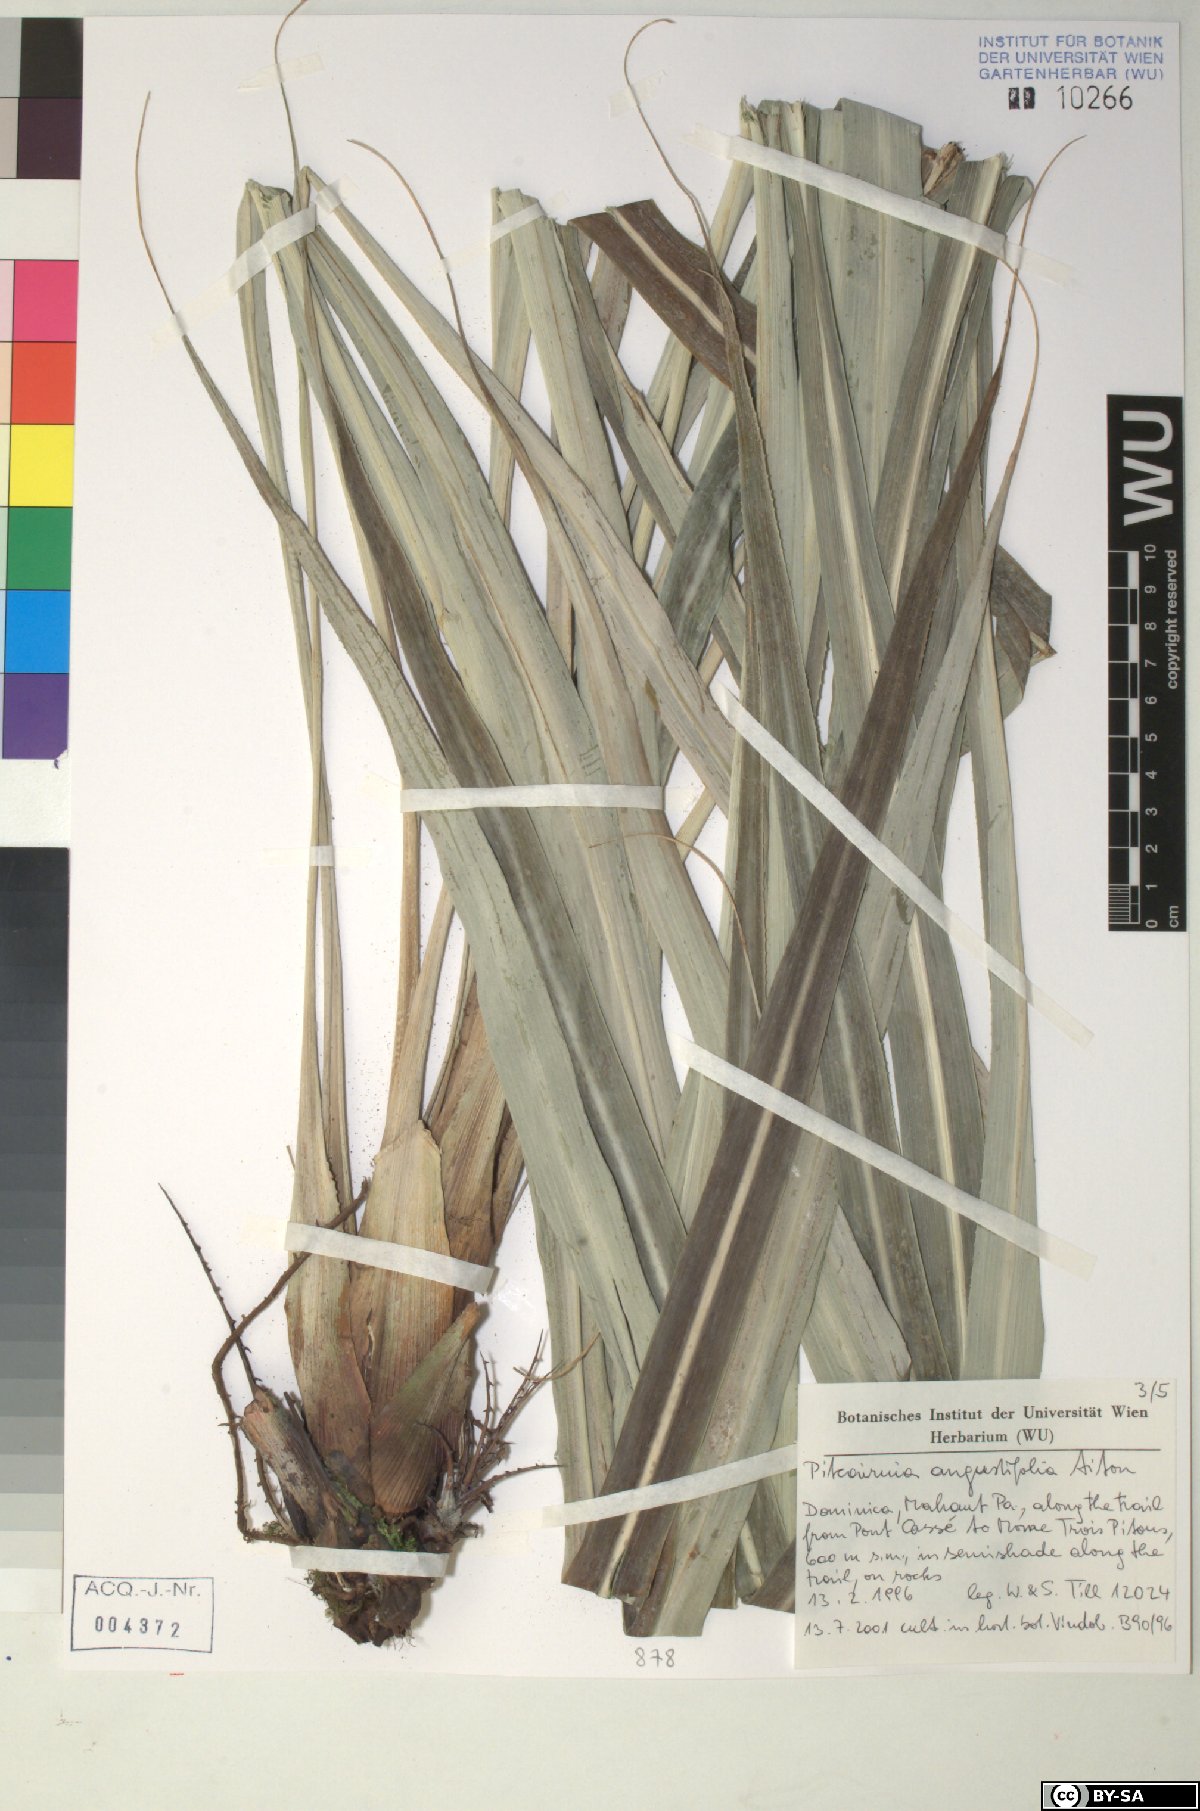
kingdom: Plantae
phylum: Tracheophyta
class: Liliopsida
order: Poales
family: Bromeliaceae
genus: Pitcairnia
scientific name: Pitcairnia angustifolia
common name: Clapper
